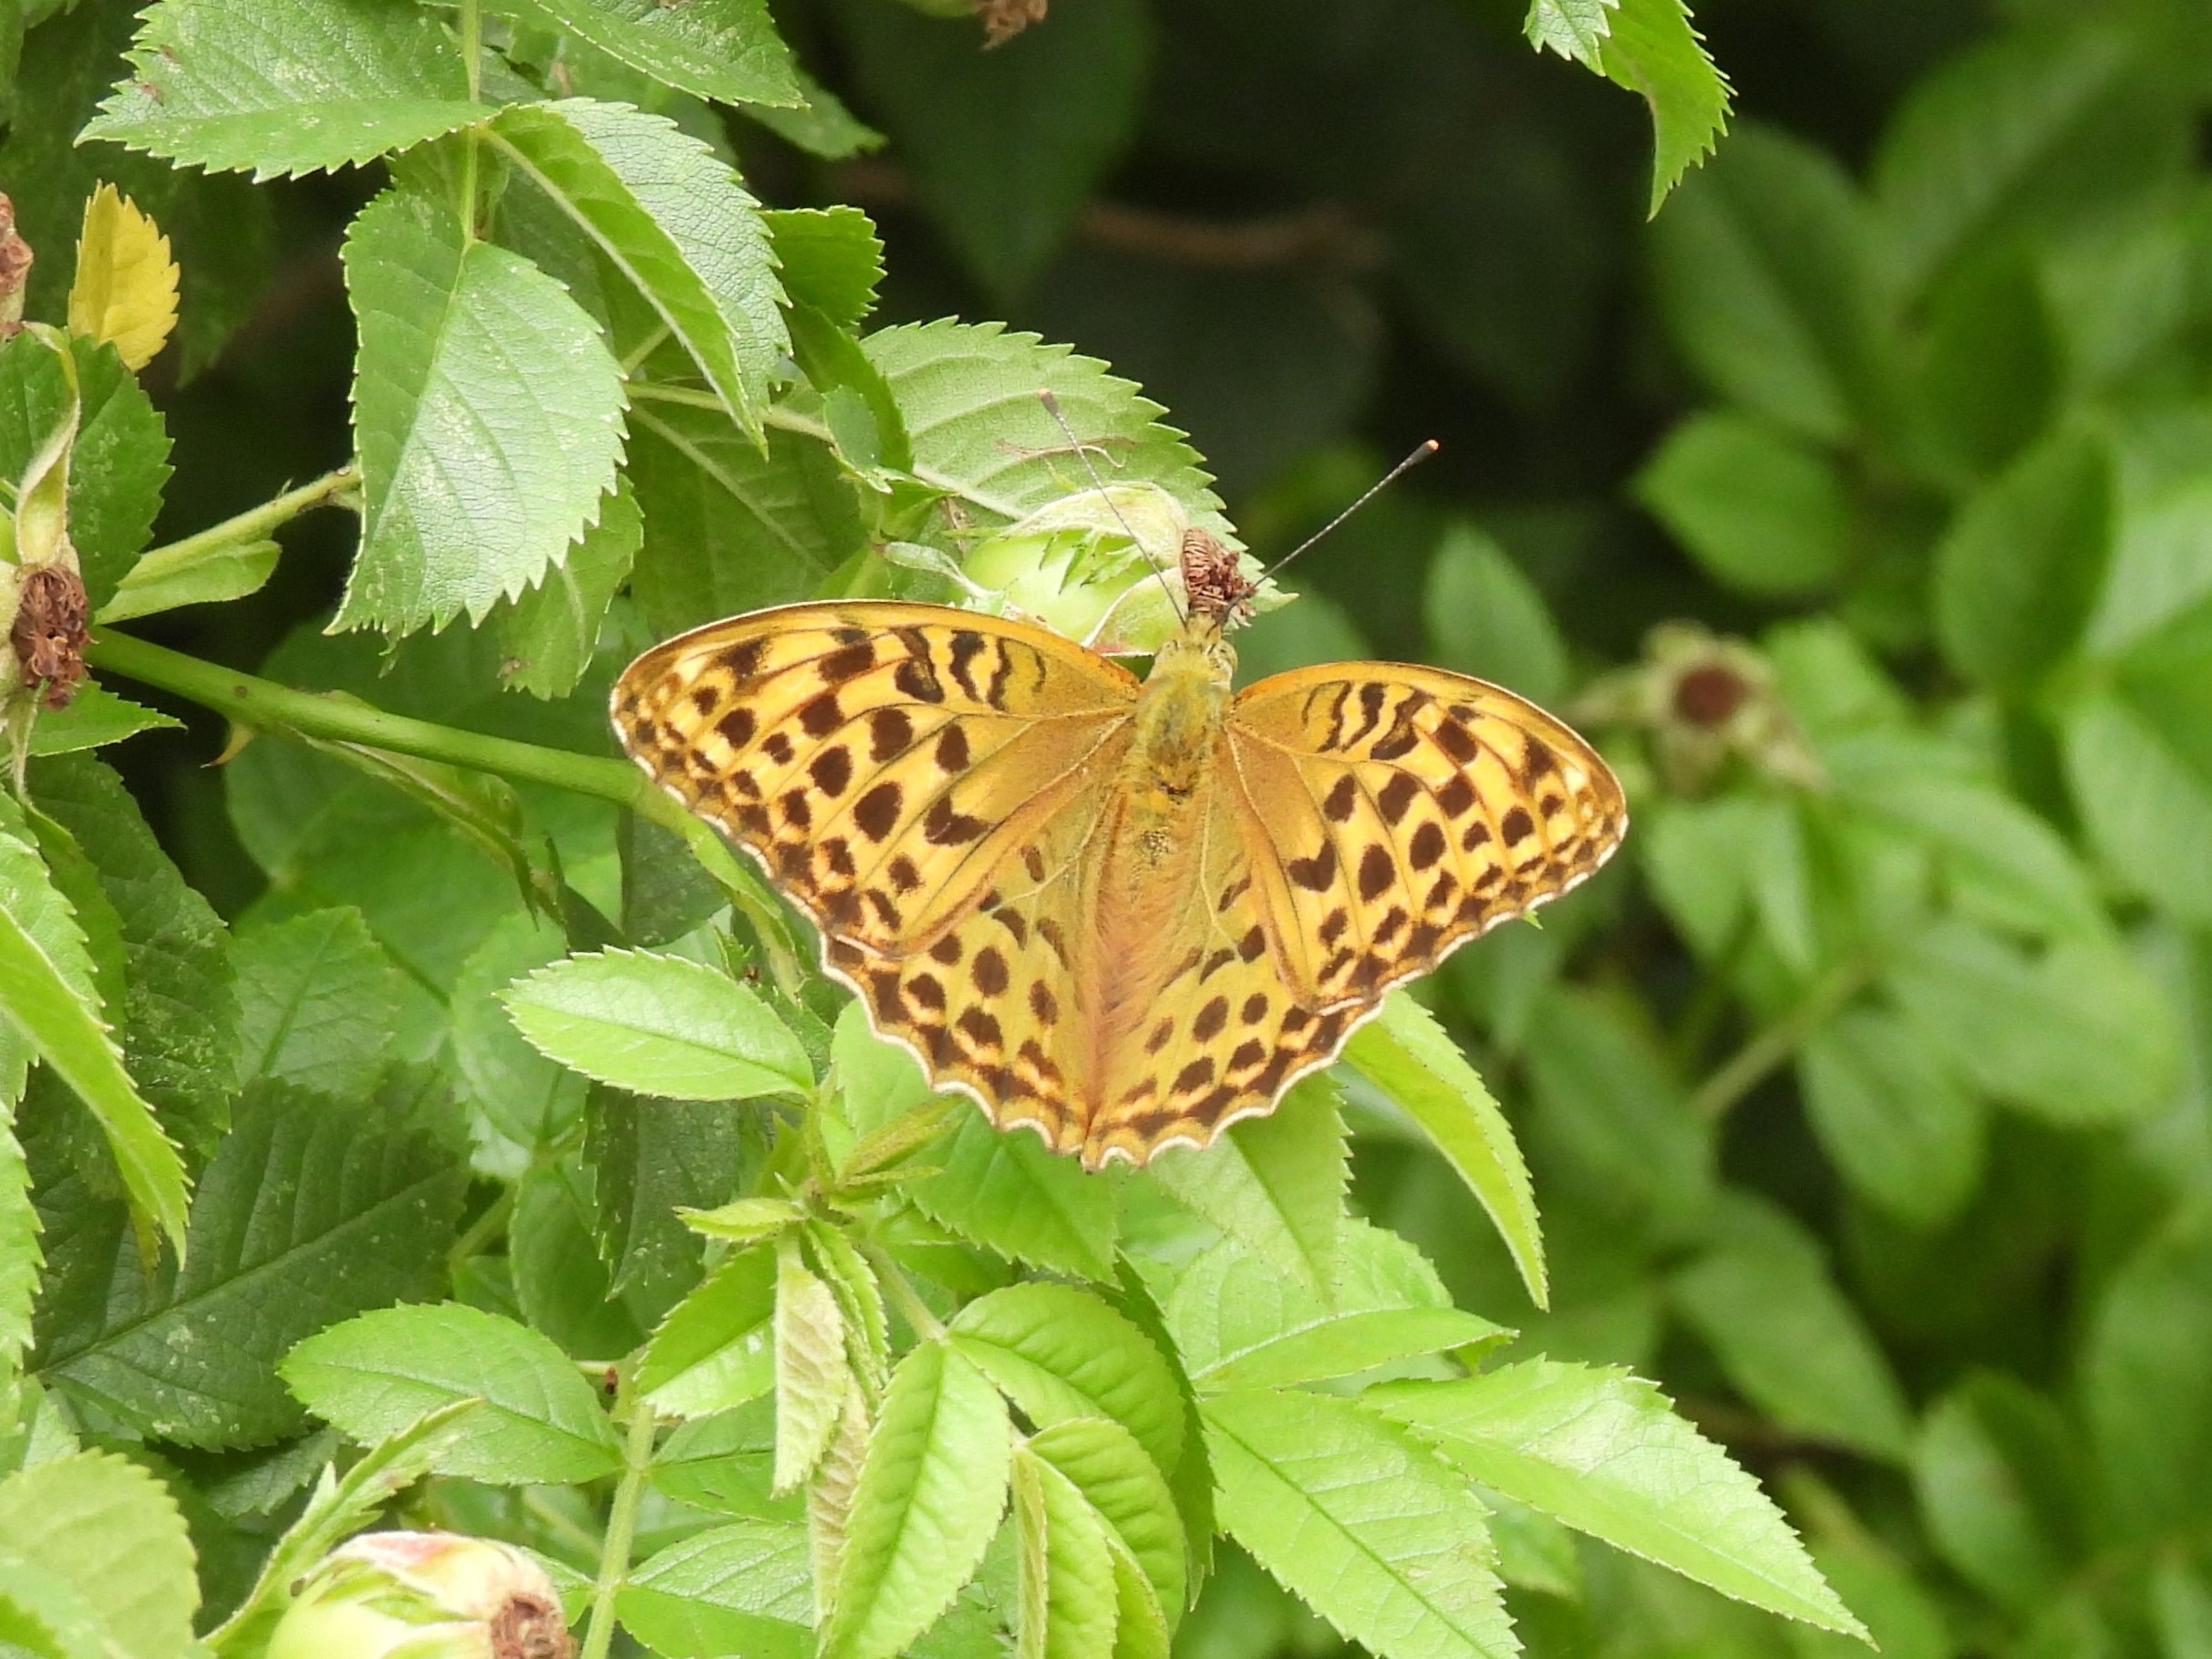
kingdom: Animalia
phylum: Arthropoda
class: Insecta
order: Lepidoptera
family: Nymphalidae
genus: Argynnis
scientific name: Argynnis paphia
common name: Kejserkåbe
